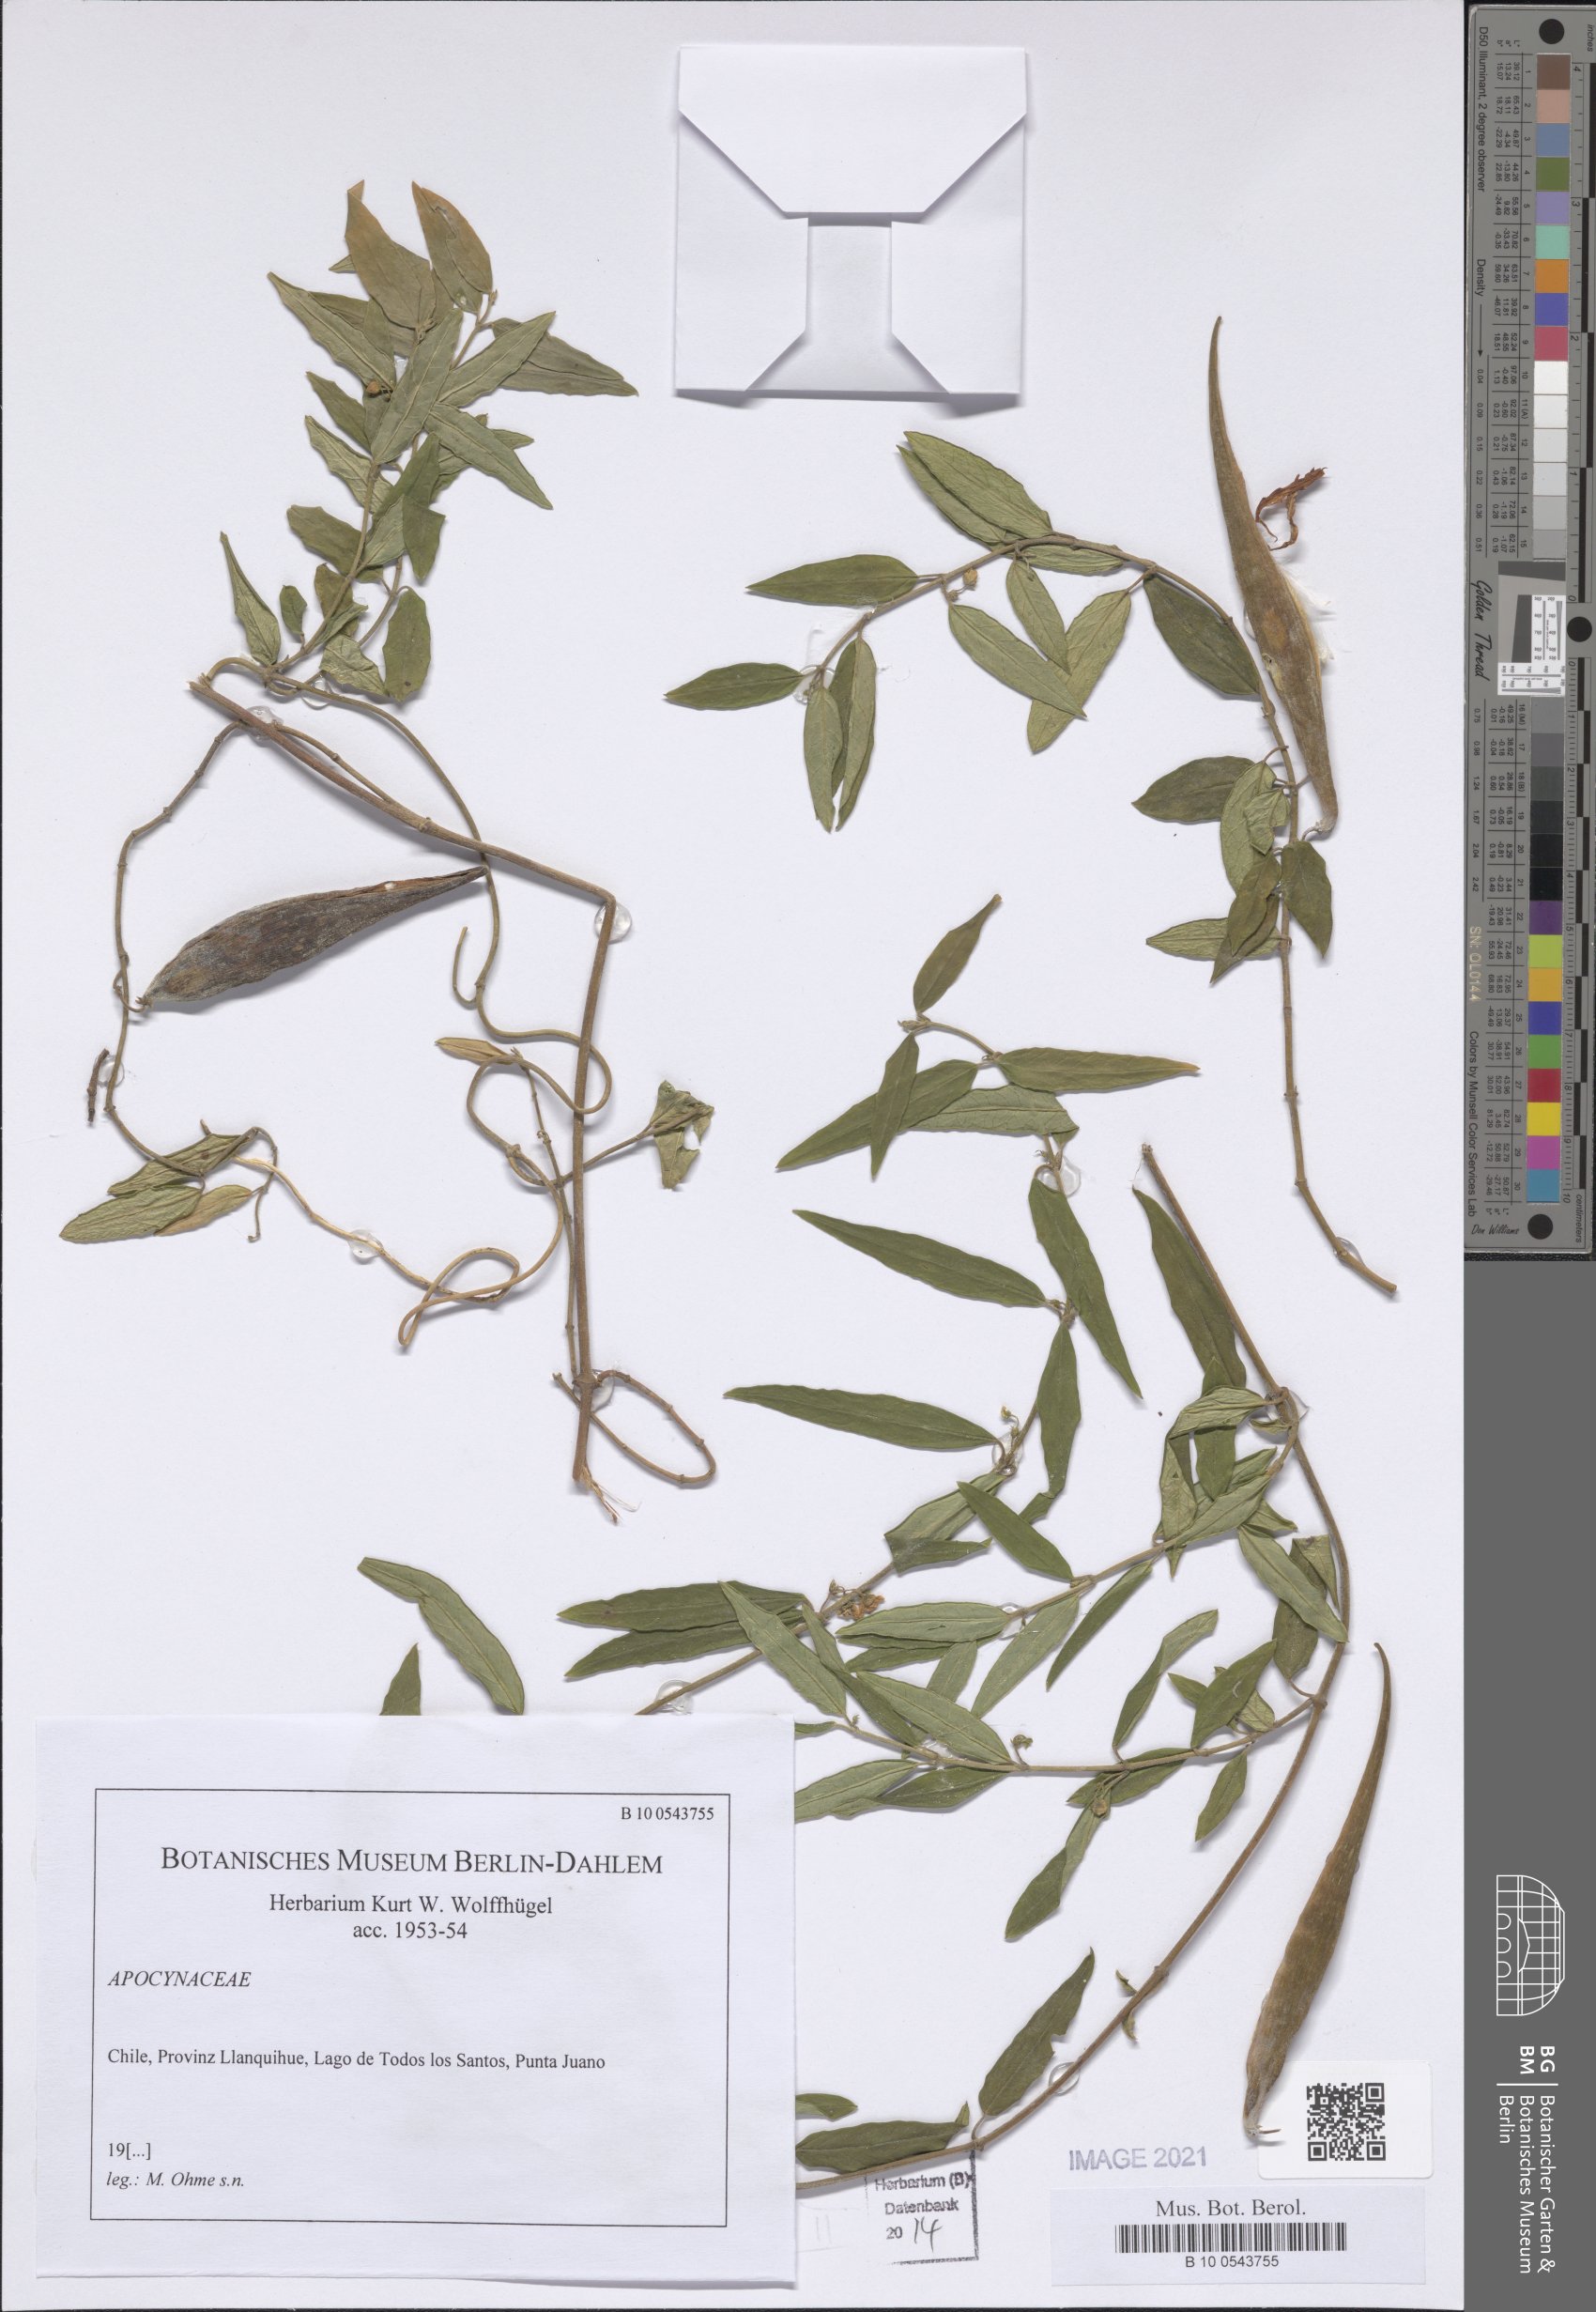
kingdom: Plantae
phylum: Tracheophyta
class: Magnoliopsida
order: Gentianales
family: Apocynaceae
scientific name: Apocynaceae
